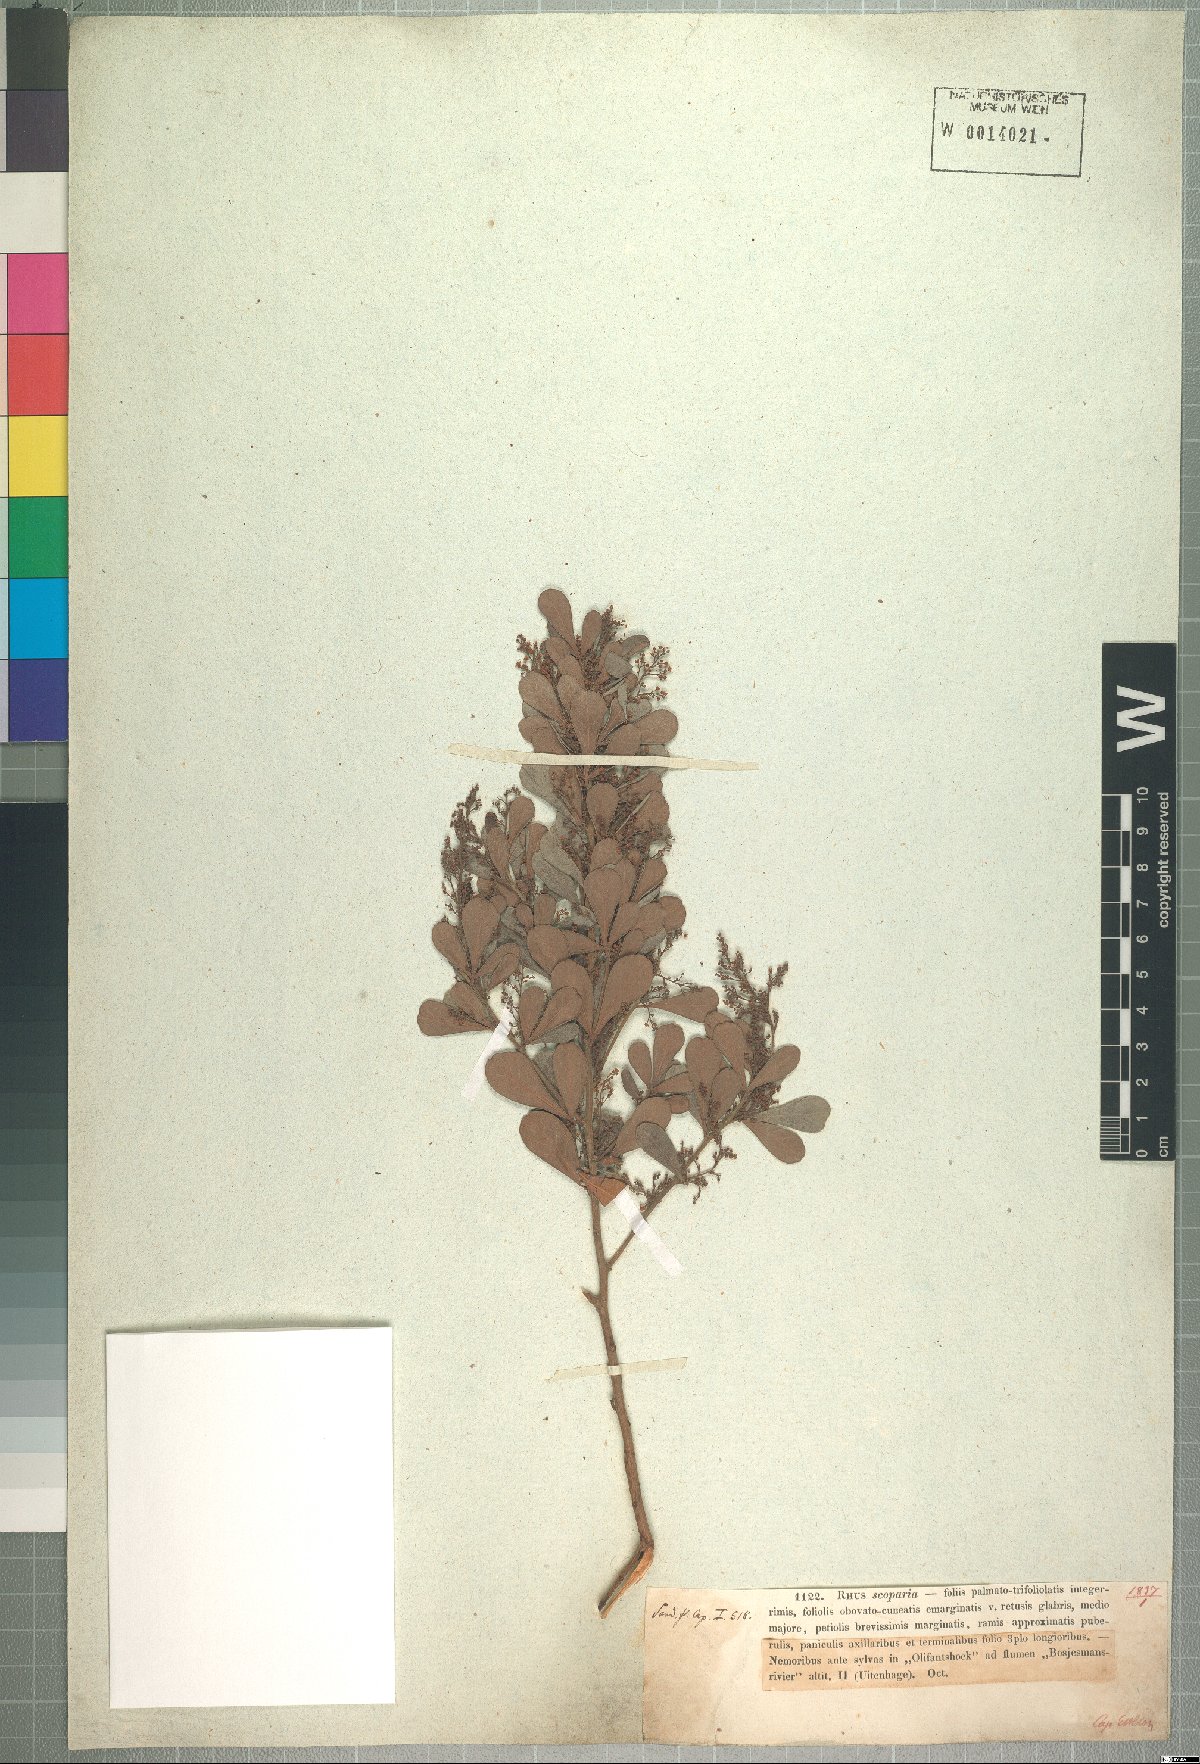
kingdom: Plantae
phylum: Tracheophyta
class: Magnoliopsida
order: Sapindales
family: Anacardiaceae
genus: Searsia
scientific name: Searsia lucida
